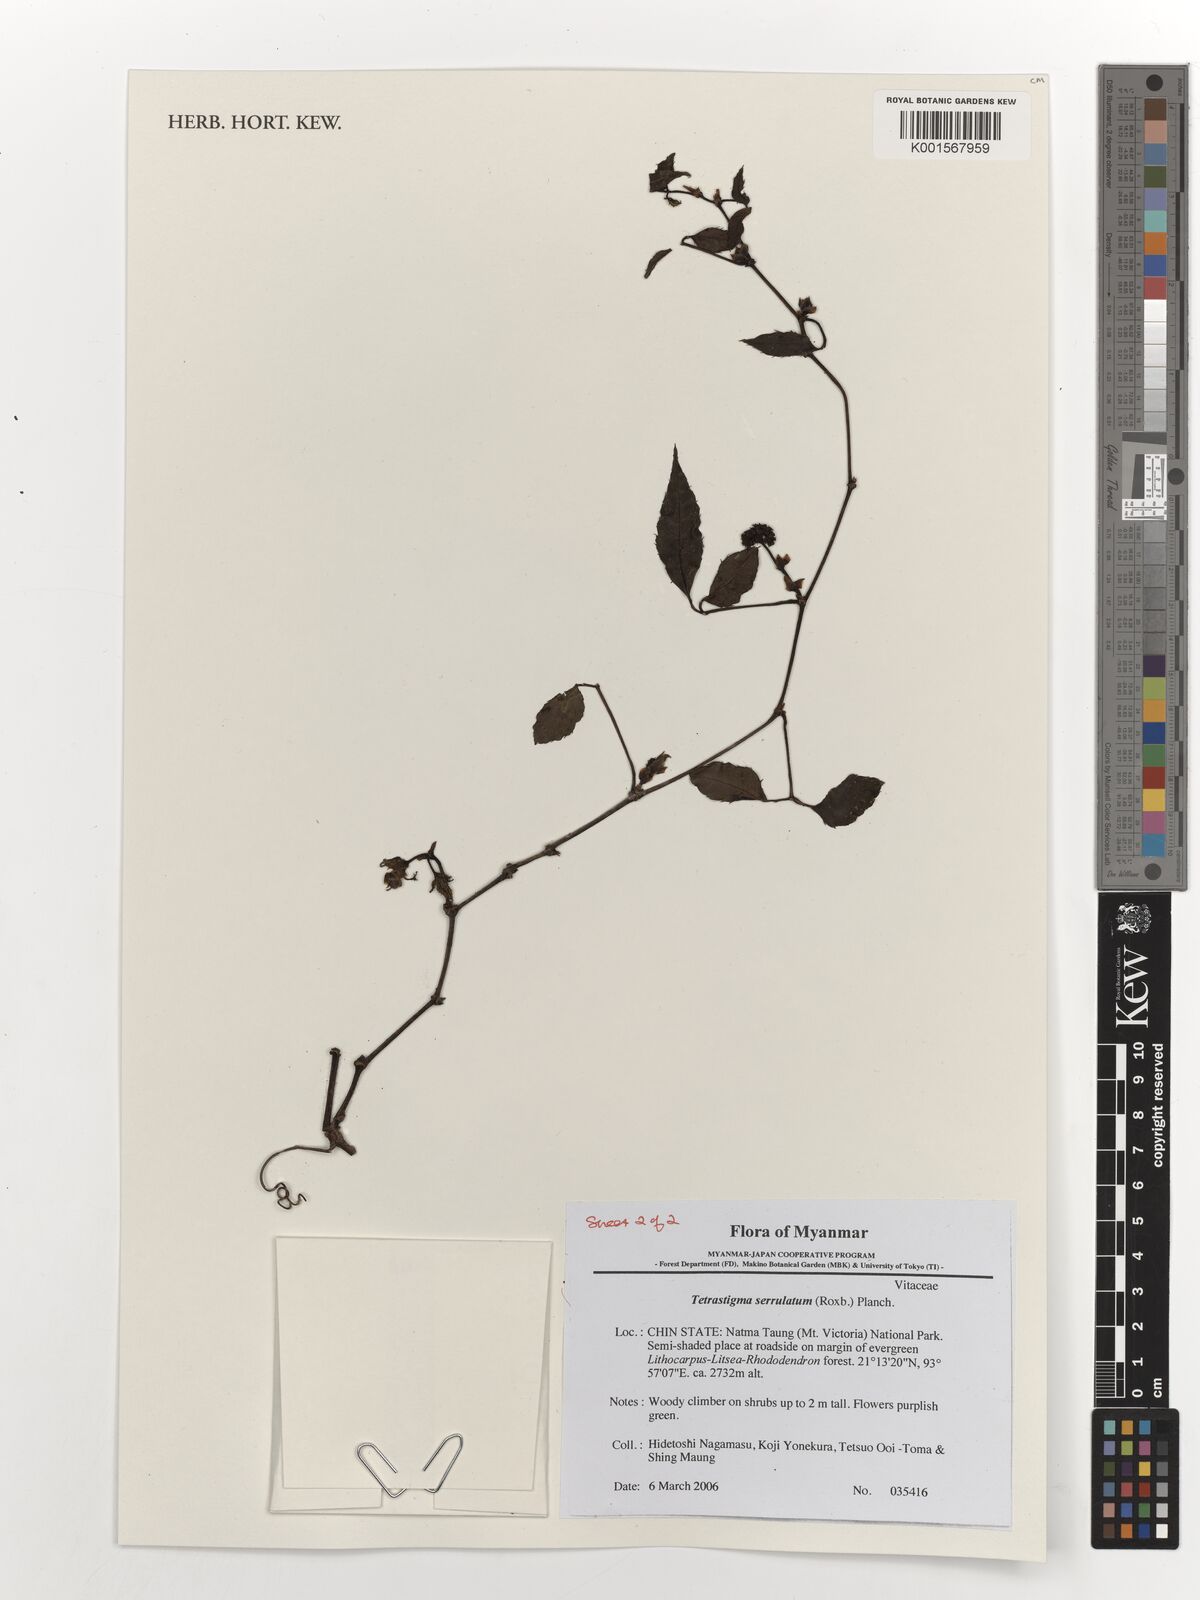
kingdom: Plantae
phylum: Tracheophyta
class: Magnoliopsida
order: Vitales
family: Vitaceae
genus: Tetrastigma
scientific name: Tetrastigma serrulatum
